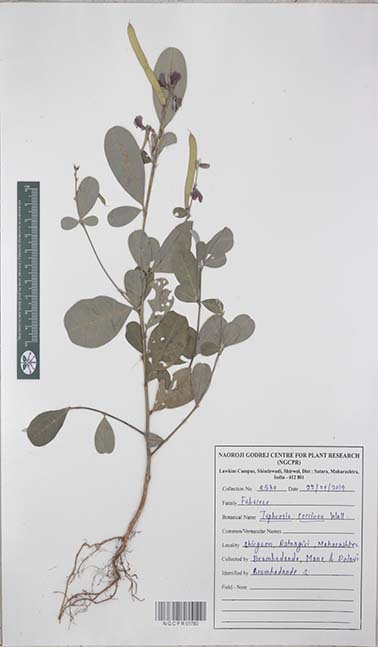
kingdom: Plantae
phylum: Tracheophyta
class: Magnoliopsida
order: Fabales
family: Fabaceae
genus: Tephrosia
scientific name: Tephrosia coccinea
